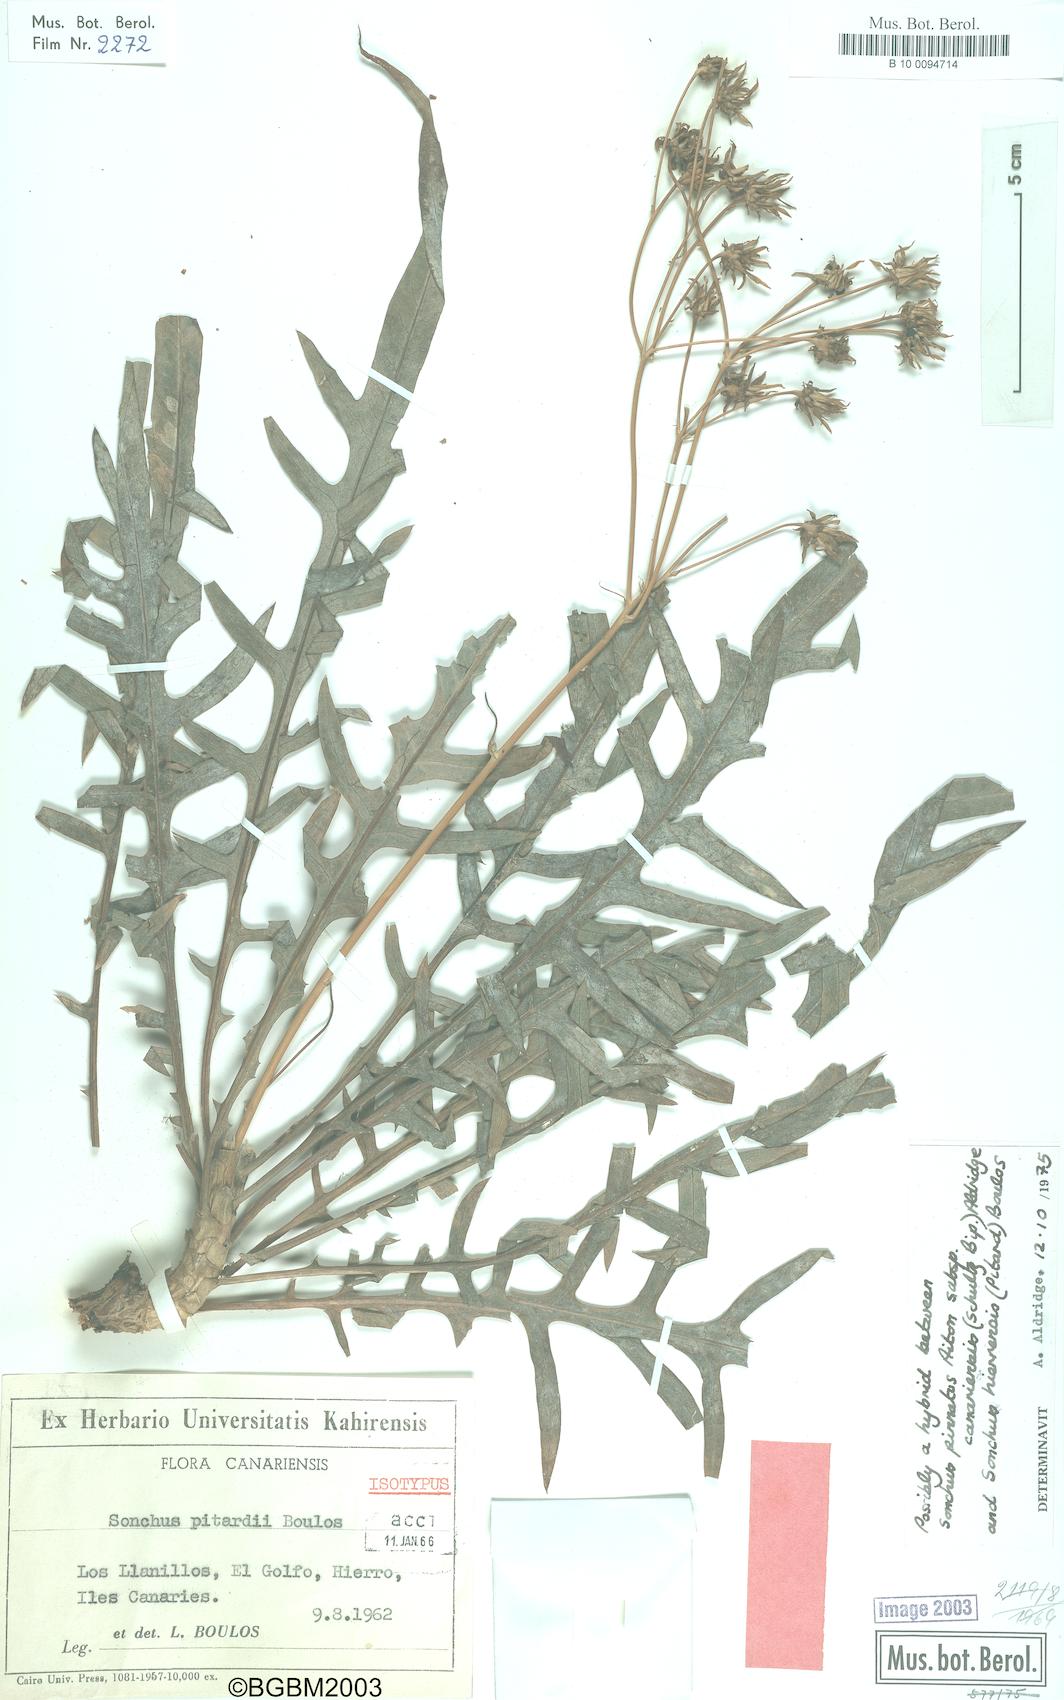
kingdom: Plantae
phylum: Tracheophyta
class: Magnoliopsida
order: Asterales
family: Asteraceae
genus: Sonchus
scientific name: Sonchus pitardii
